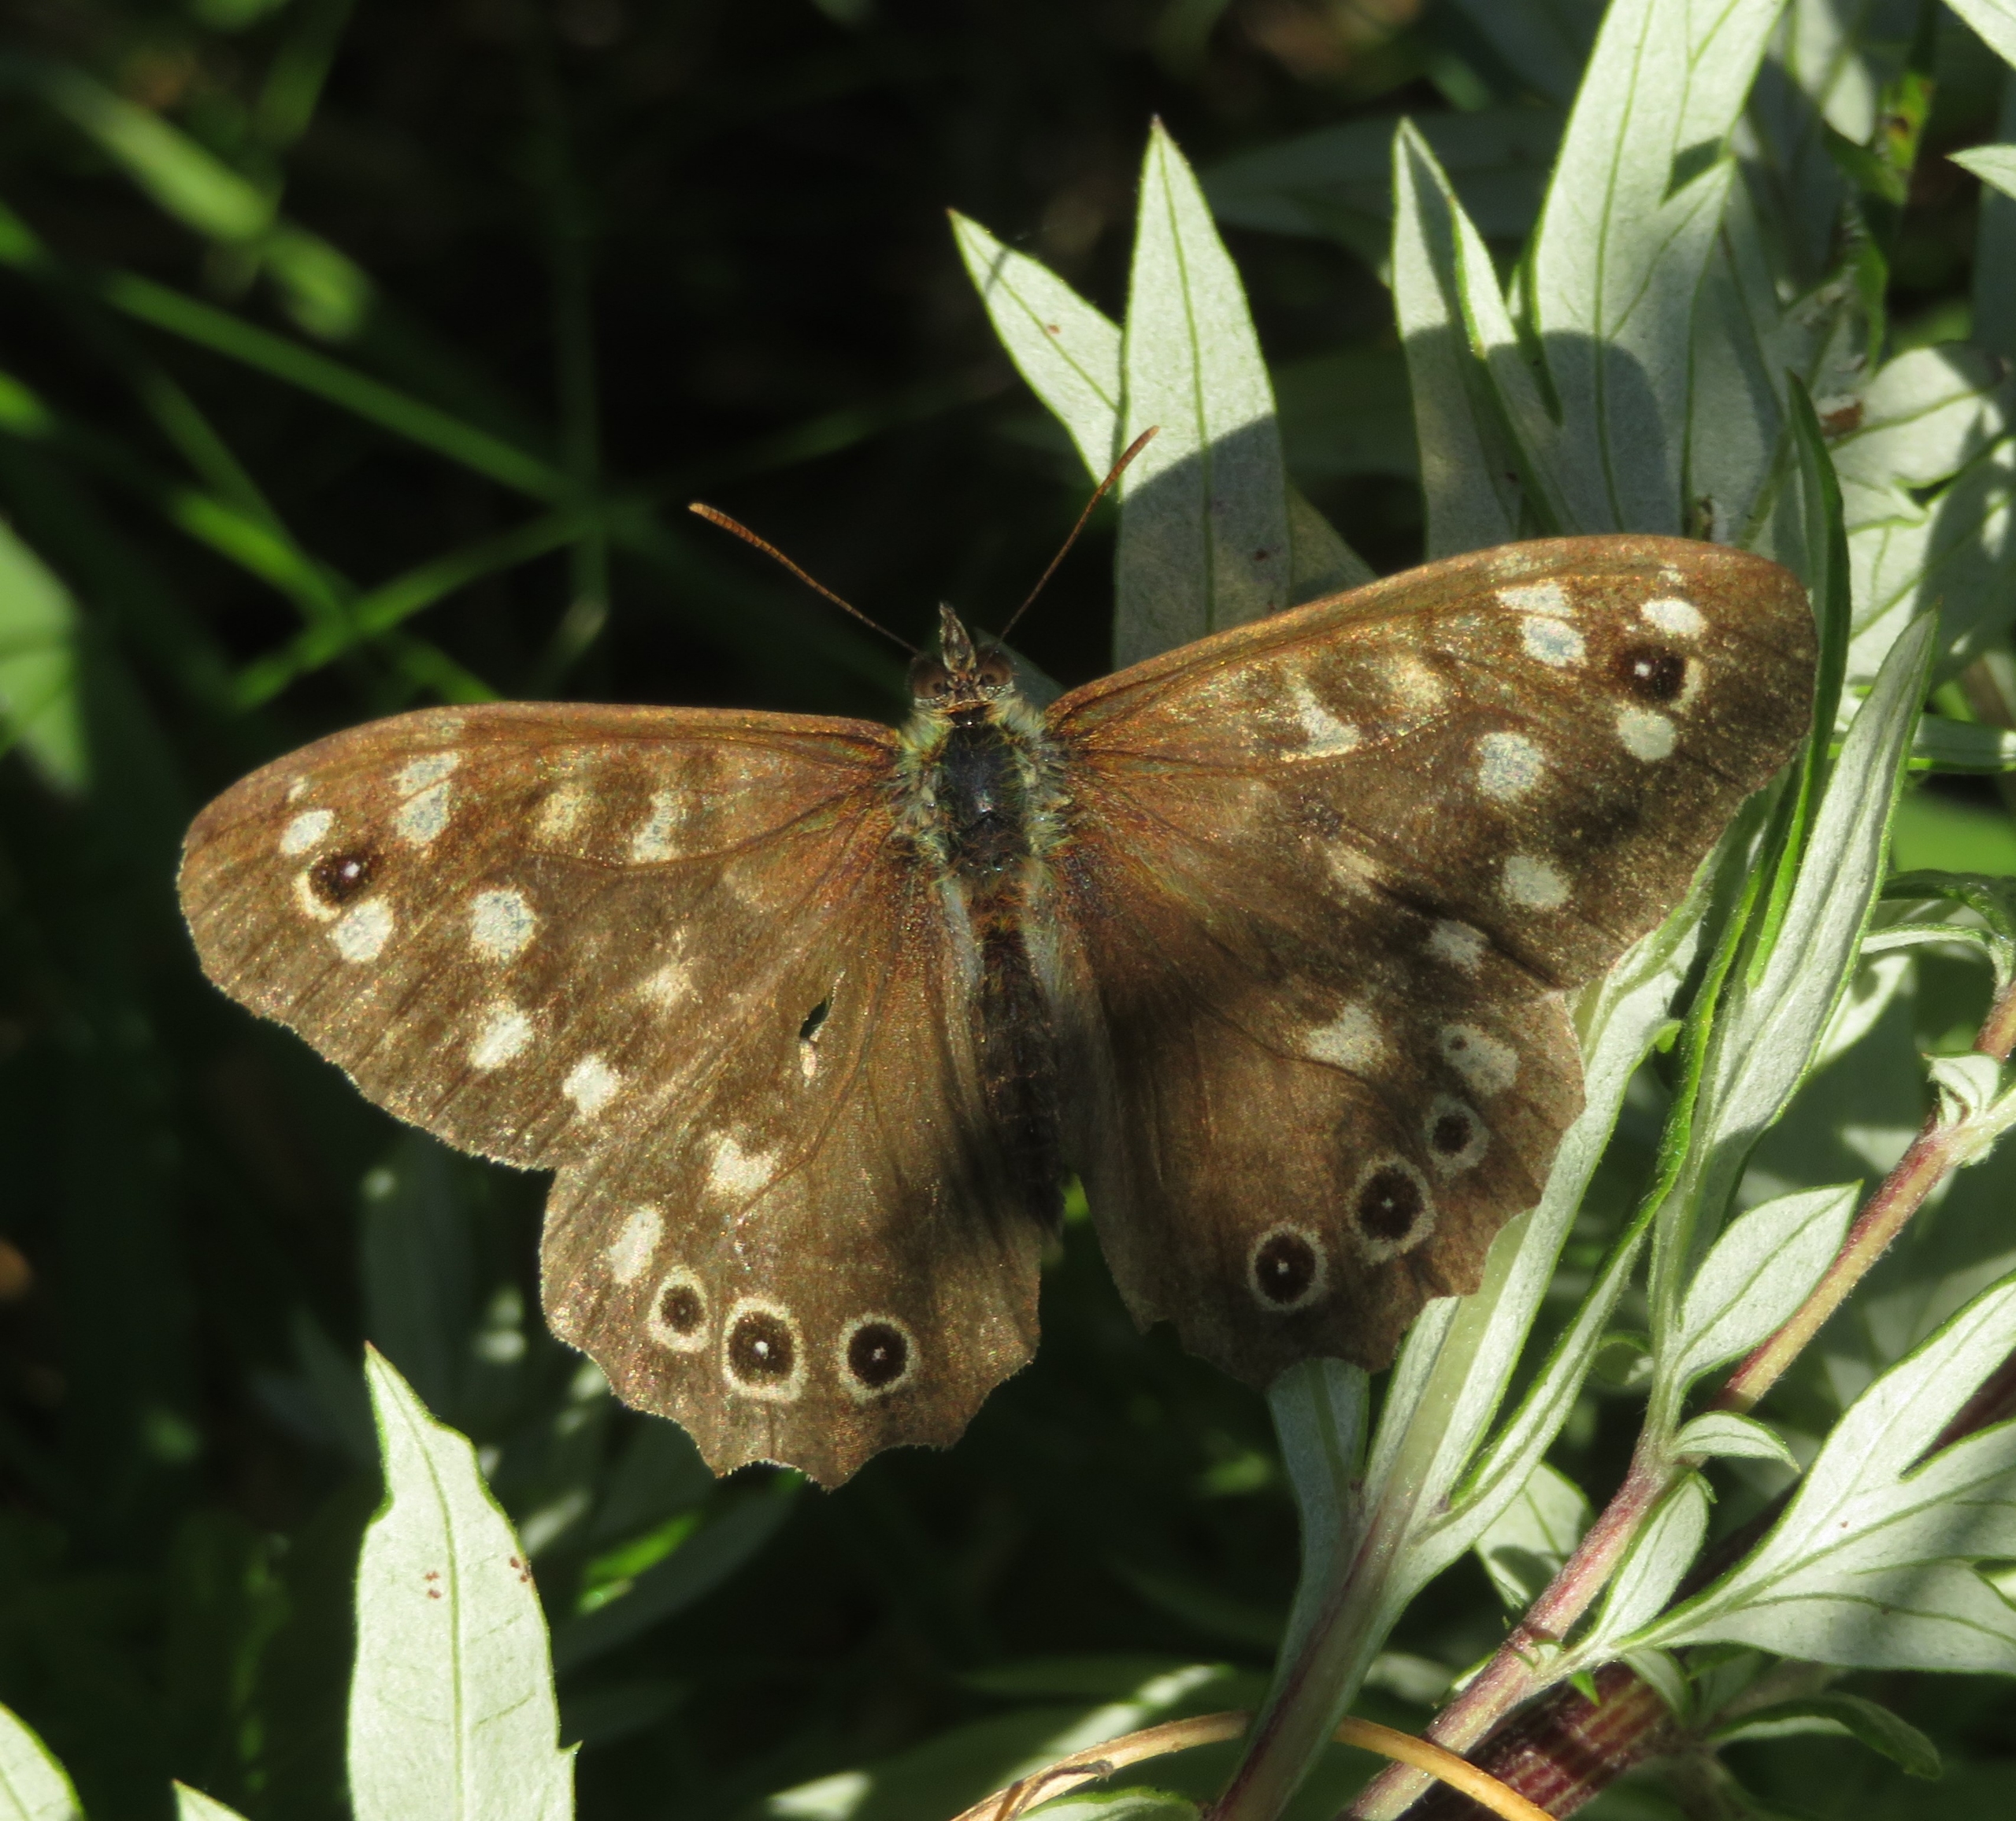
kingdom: Animalia
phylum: Arthropoda
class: Insecta
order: Lepidoptera
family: Nymphalidae
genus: Pararge
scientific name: Pararge aegeria
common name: Skovrandøje
